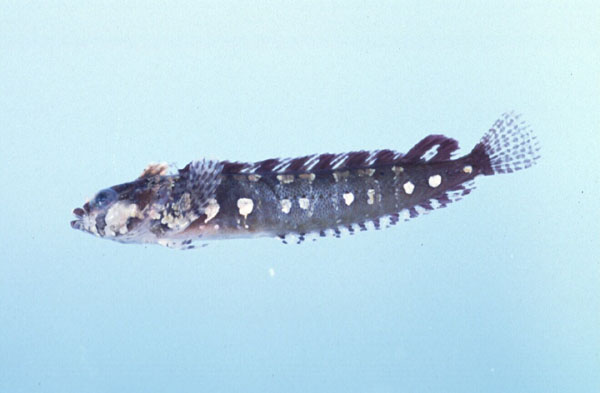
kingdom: Animalia
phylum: Chordata
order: Perciformes
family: Clinidae
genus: Blennioclinus
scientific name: Blennioclinus stella
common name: Silverbubble klipfish
